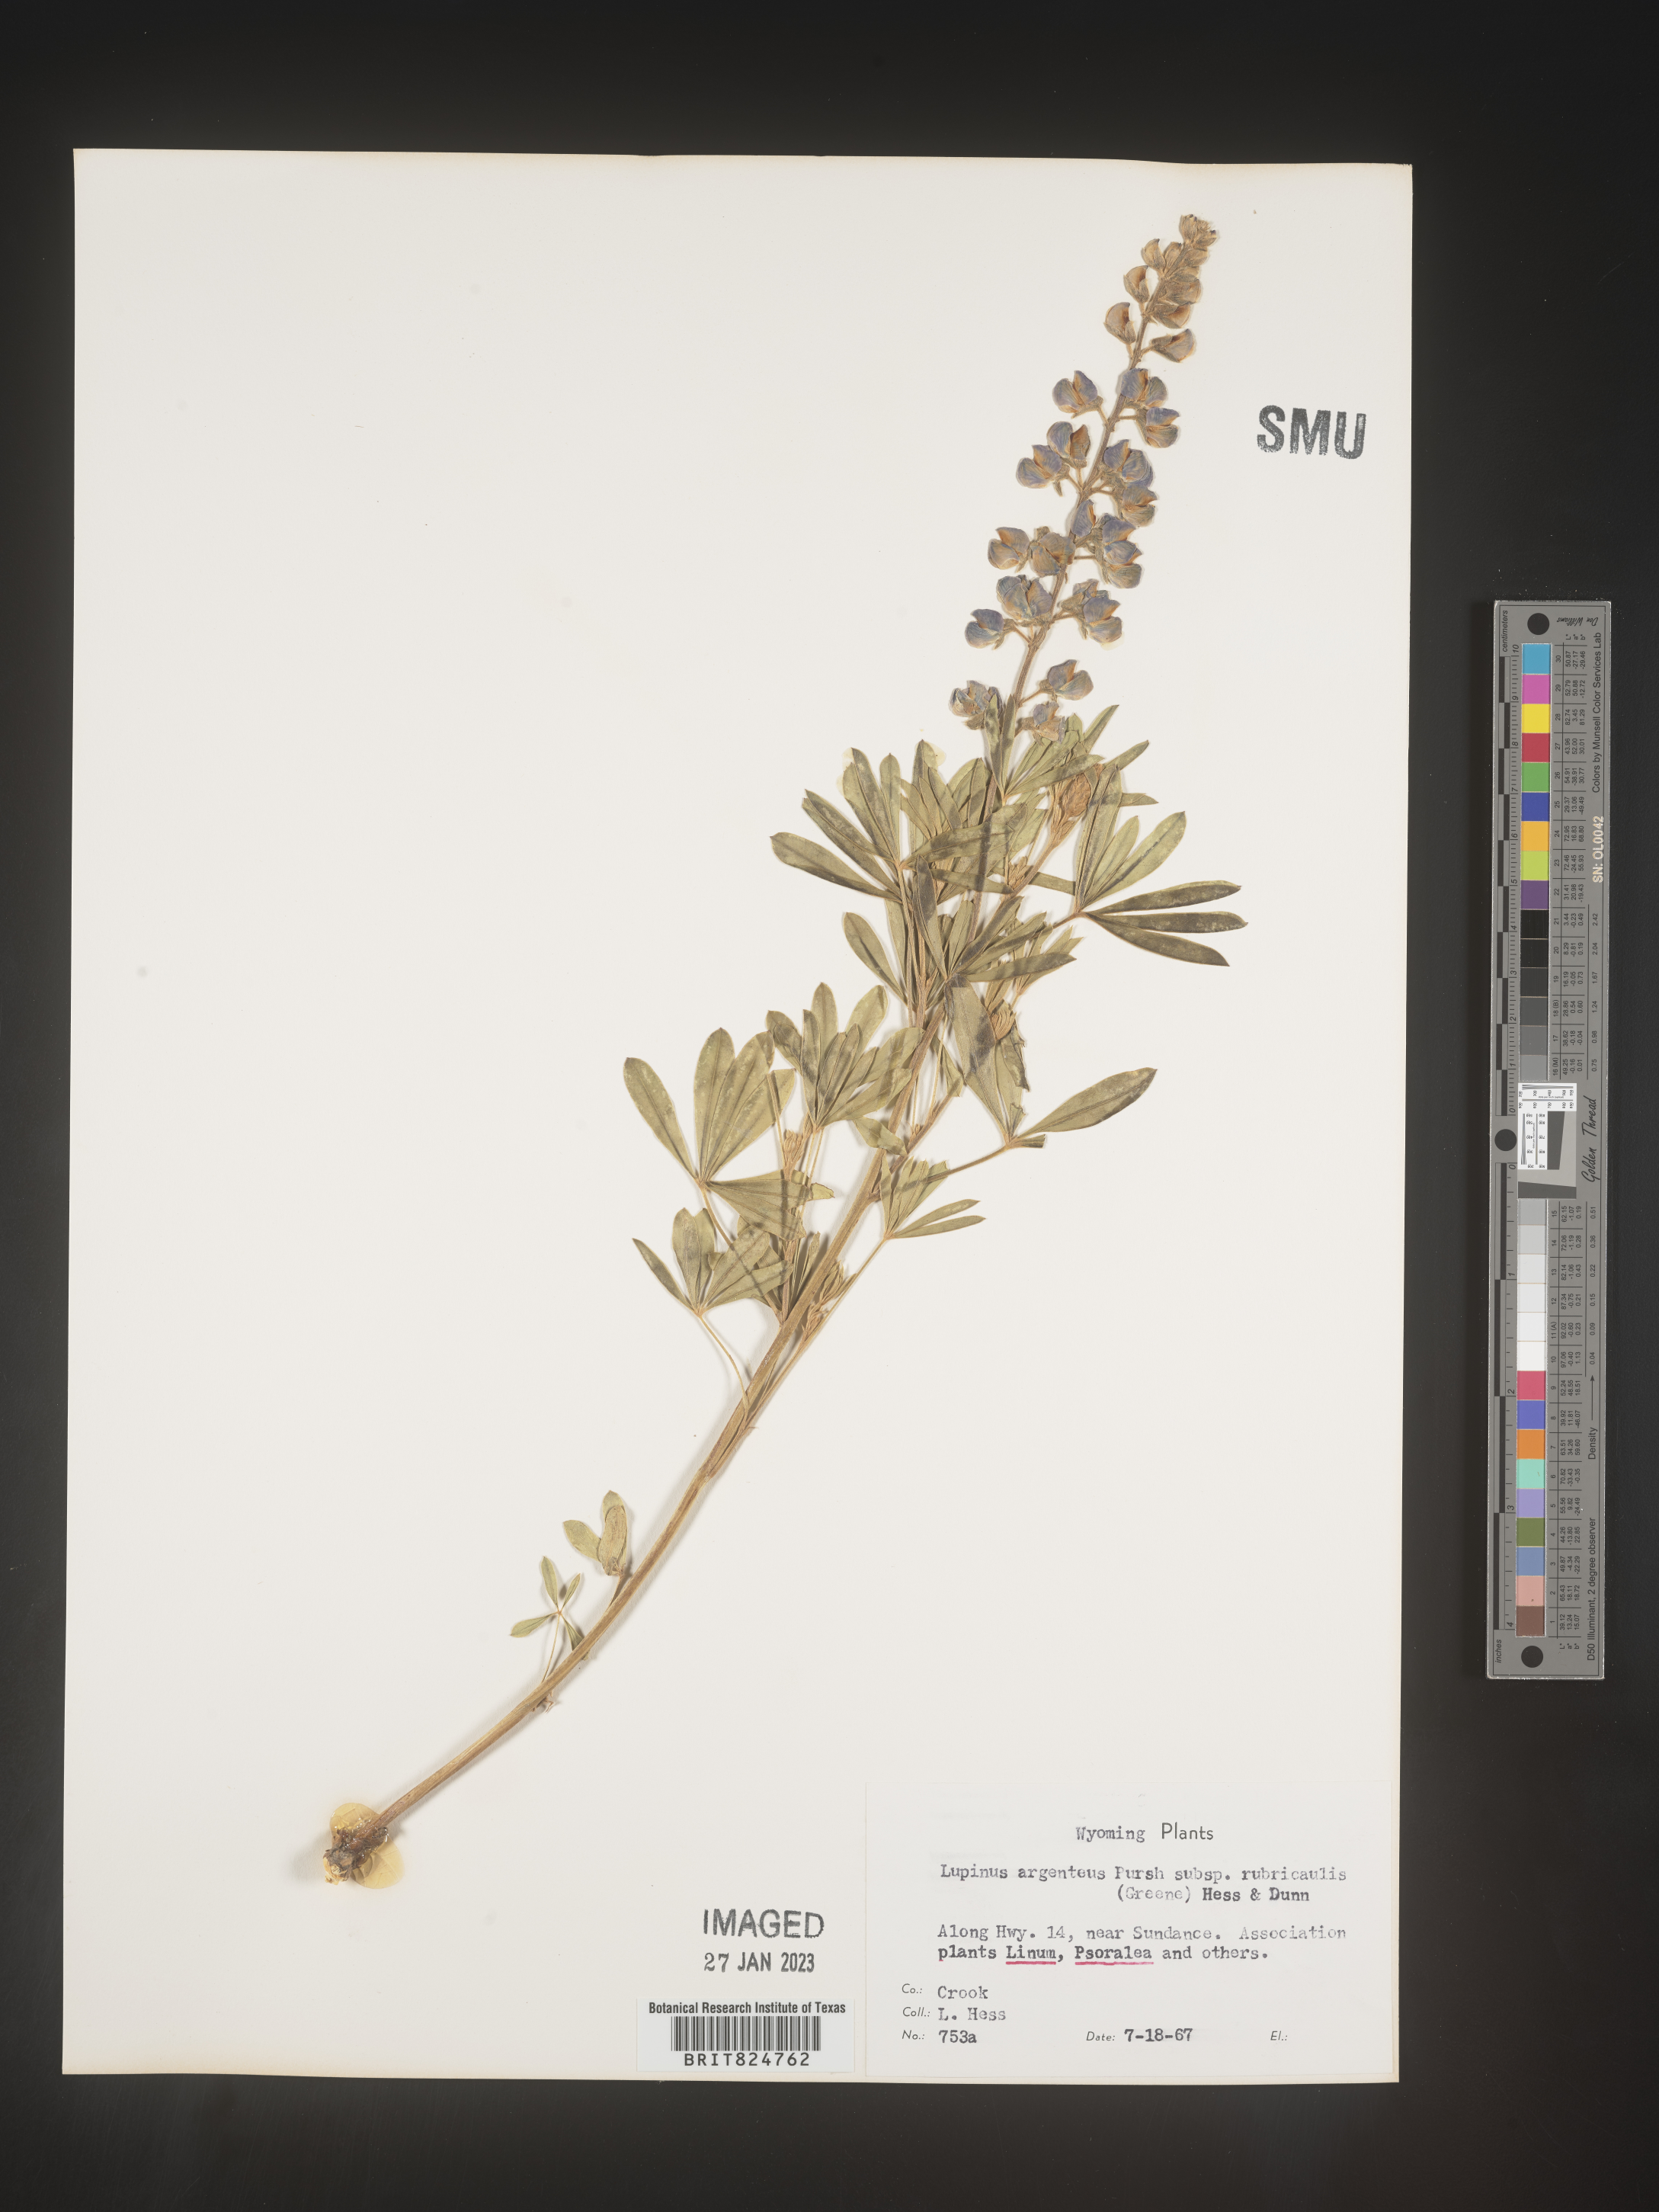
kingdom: Plantae
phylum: Tracheophyta
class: Magnoliopsida
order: Fabales
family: Fabaceae
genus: Lupinus
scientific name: Lupinus argenteus
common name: Silvery lupine
